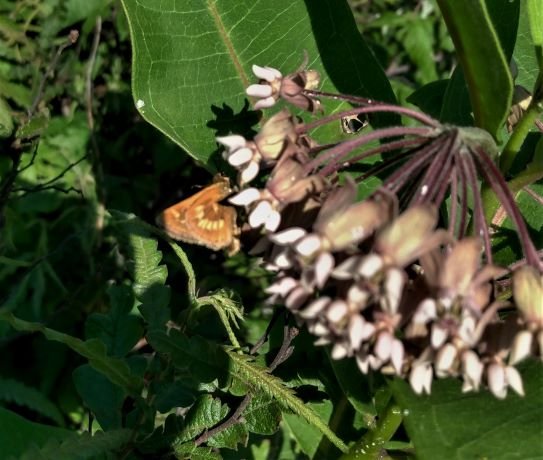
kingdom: Animalia
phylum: Arthropoda
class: Insecta
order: Lepidoptera
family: Hesperiidae
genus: Polites
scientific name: Polites
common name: Long Dash Skipper
